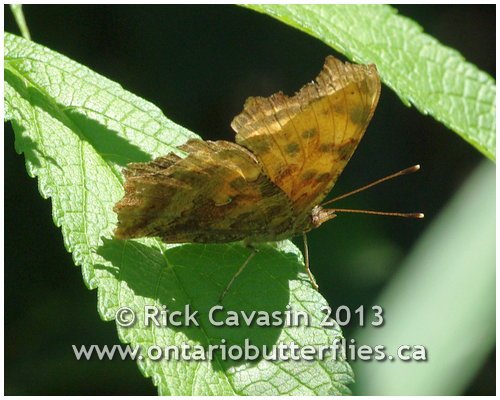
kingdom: Animalia
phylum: Arthropoda
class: Insecta
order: Lepidoptera
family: Nymphalidae
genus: Polygonia
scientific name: Polygonia comma
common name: Eastern Comma
